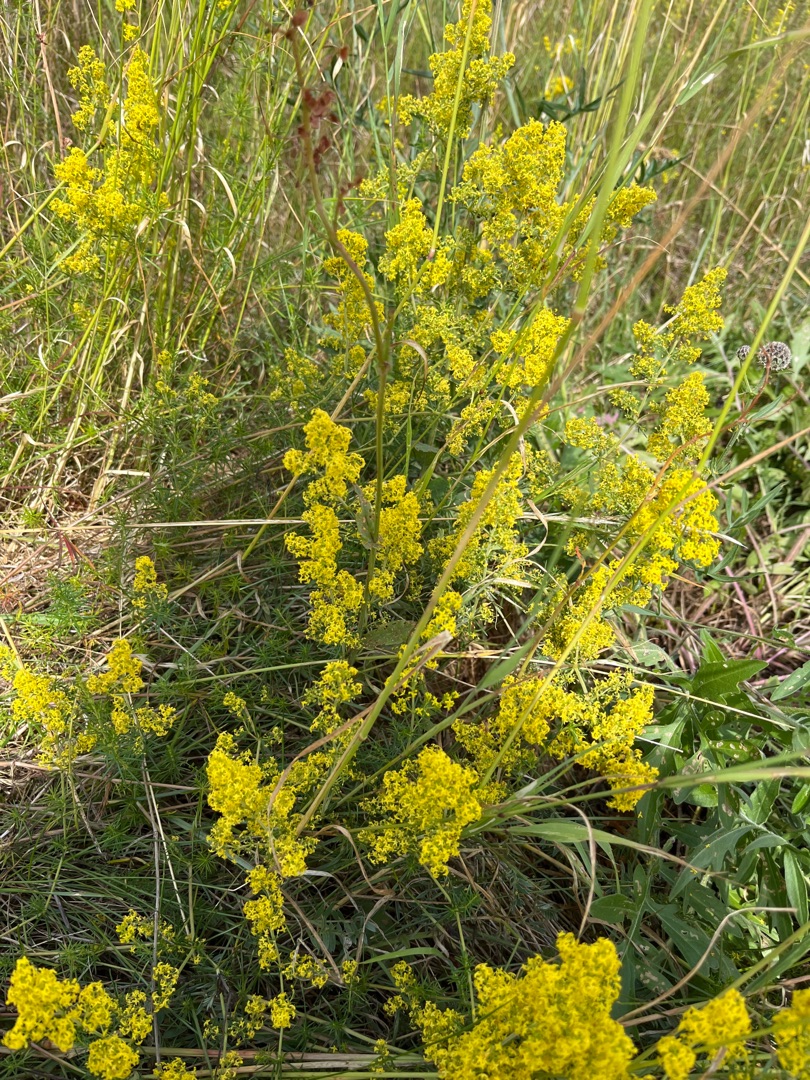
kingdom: Plantae
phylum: Tracheophyta
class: Magnoliopsida
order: Gentianales
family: Rubiaceae
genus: Galium
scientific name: Galium verum
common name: Gul snerre
